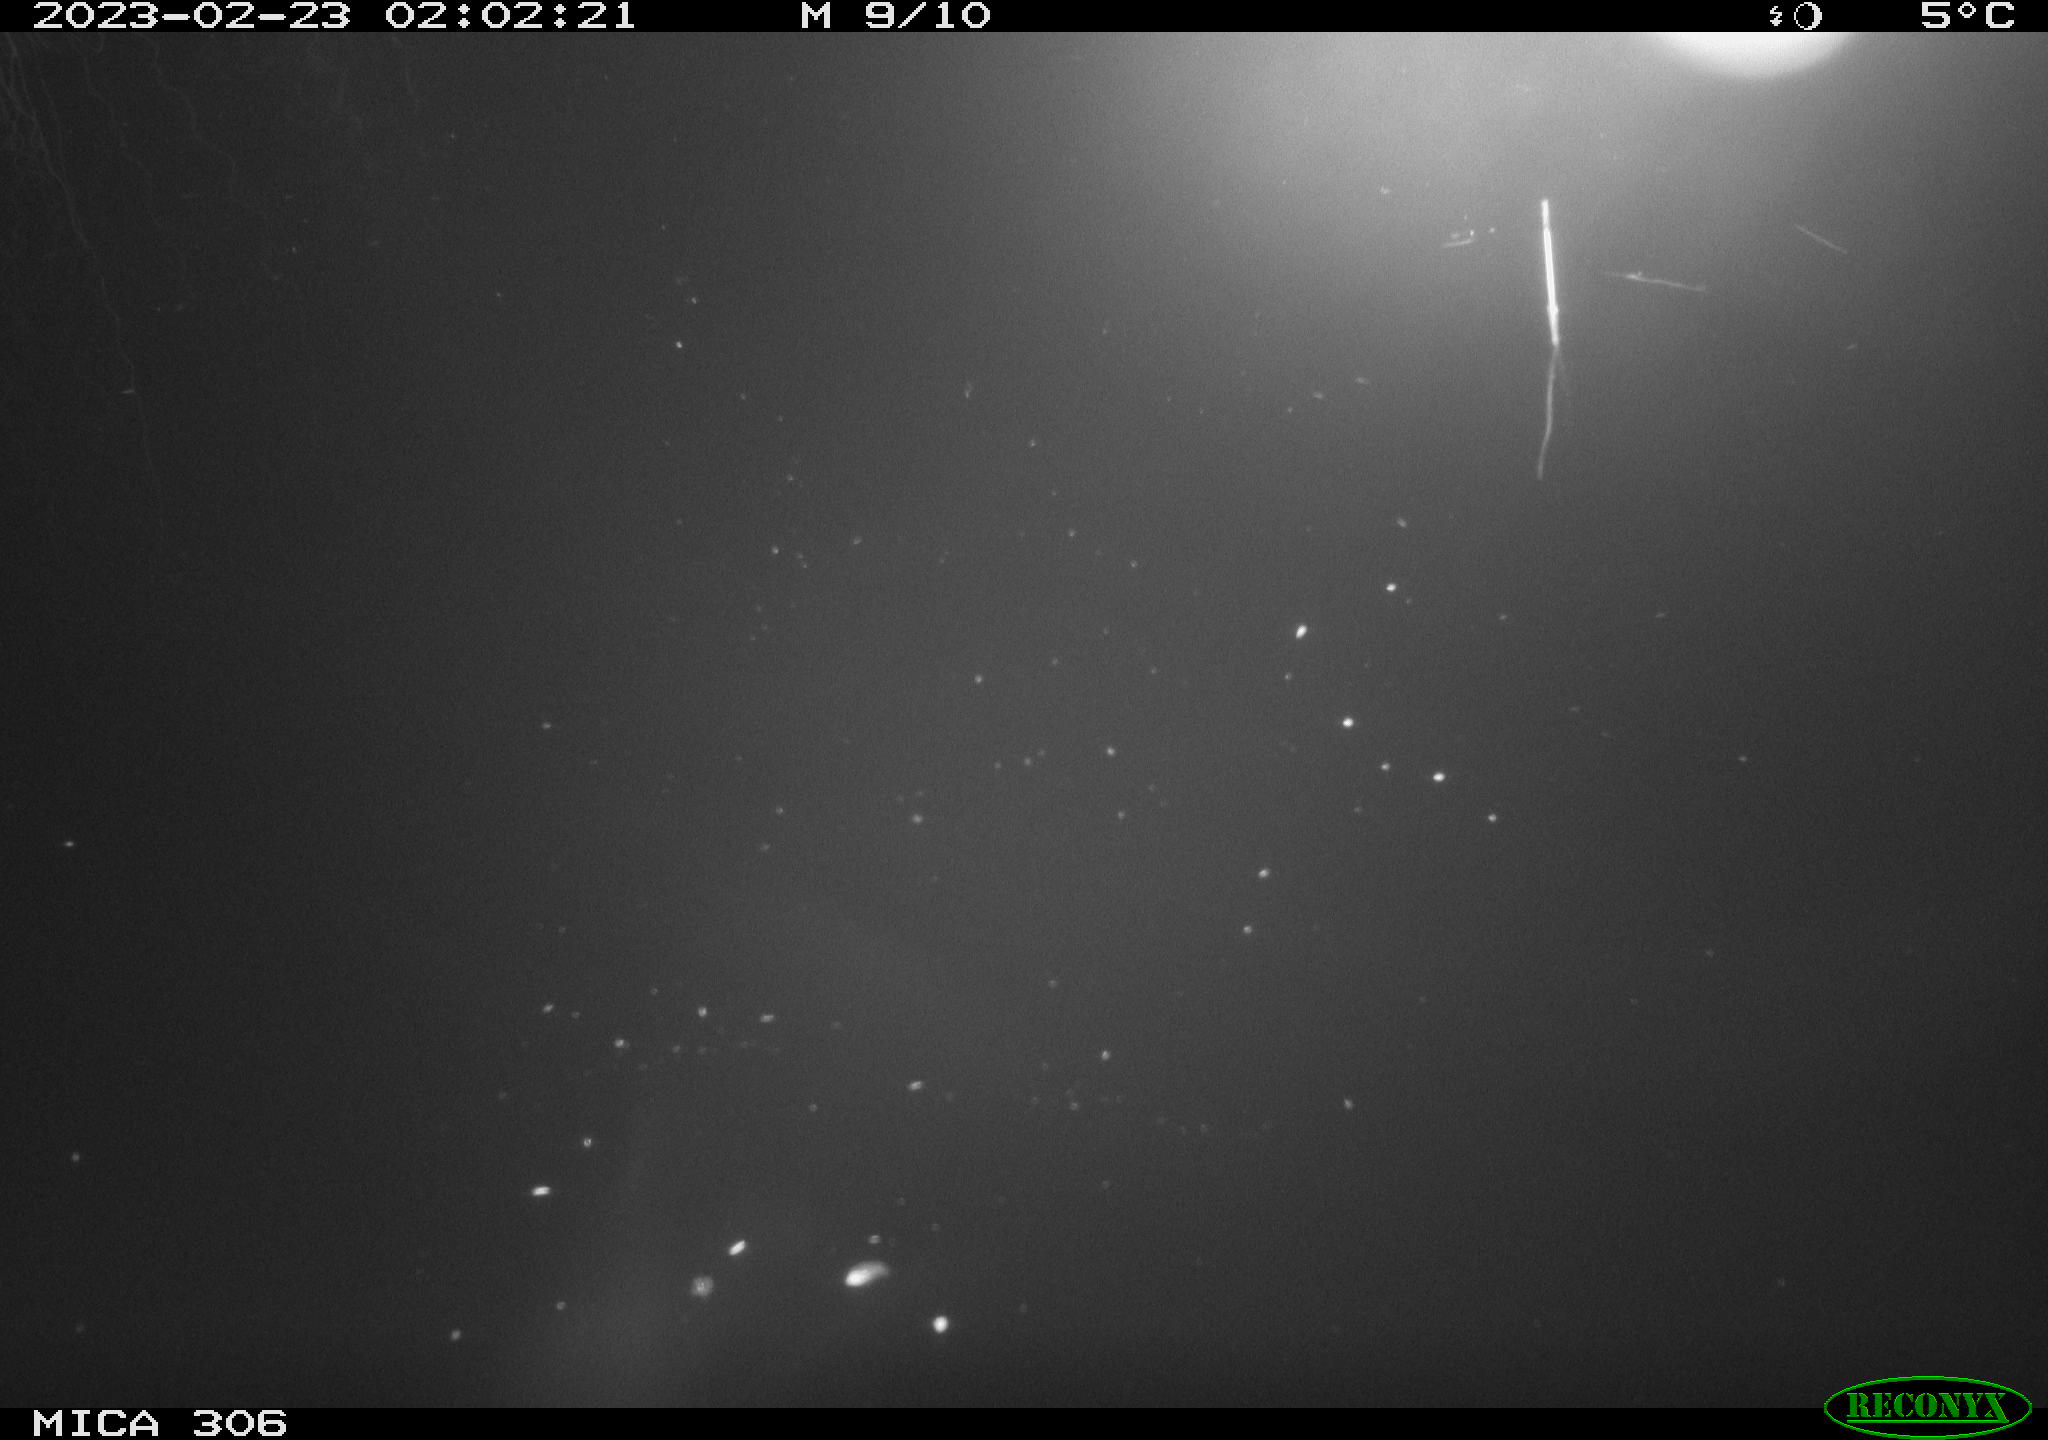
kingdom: Animalia
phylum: Chordata
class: Mammalia
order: Rodentia
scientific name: Rodentia
